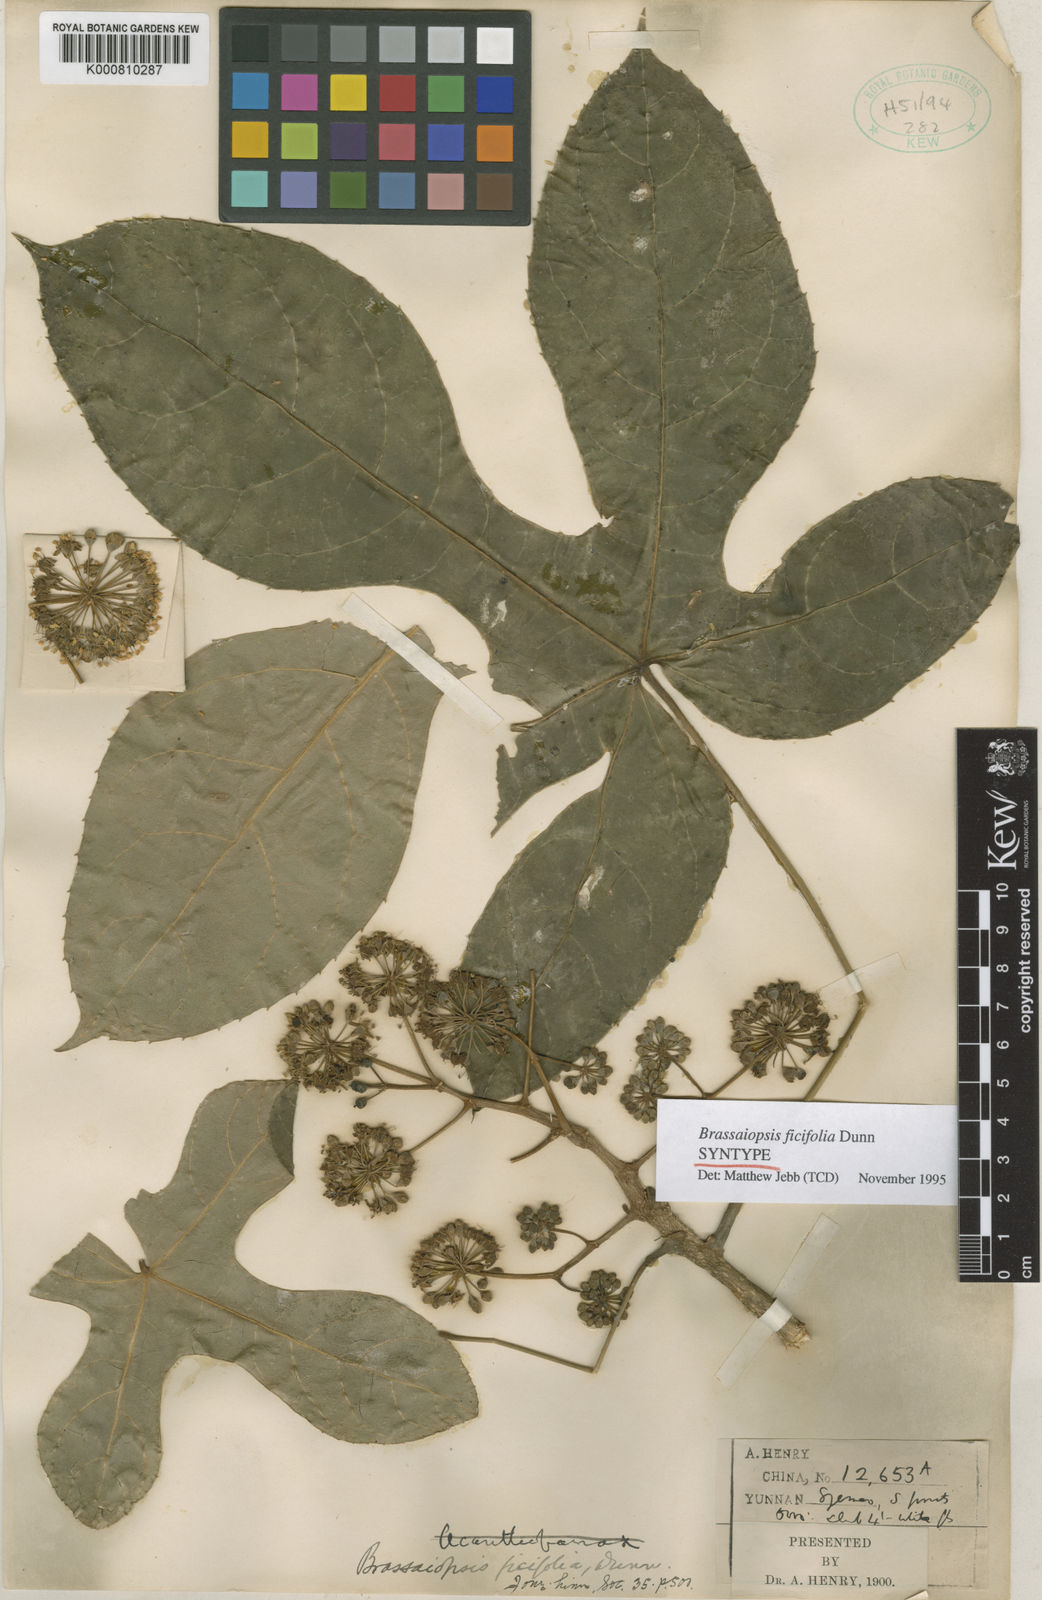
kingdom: Plantae
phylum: Tracheophyta
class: Magnoliopsida
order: Apiales
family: Araliaceae
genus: Brassaiopsis
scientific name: Brassaiopsis ficifolia
